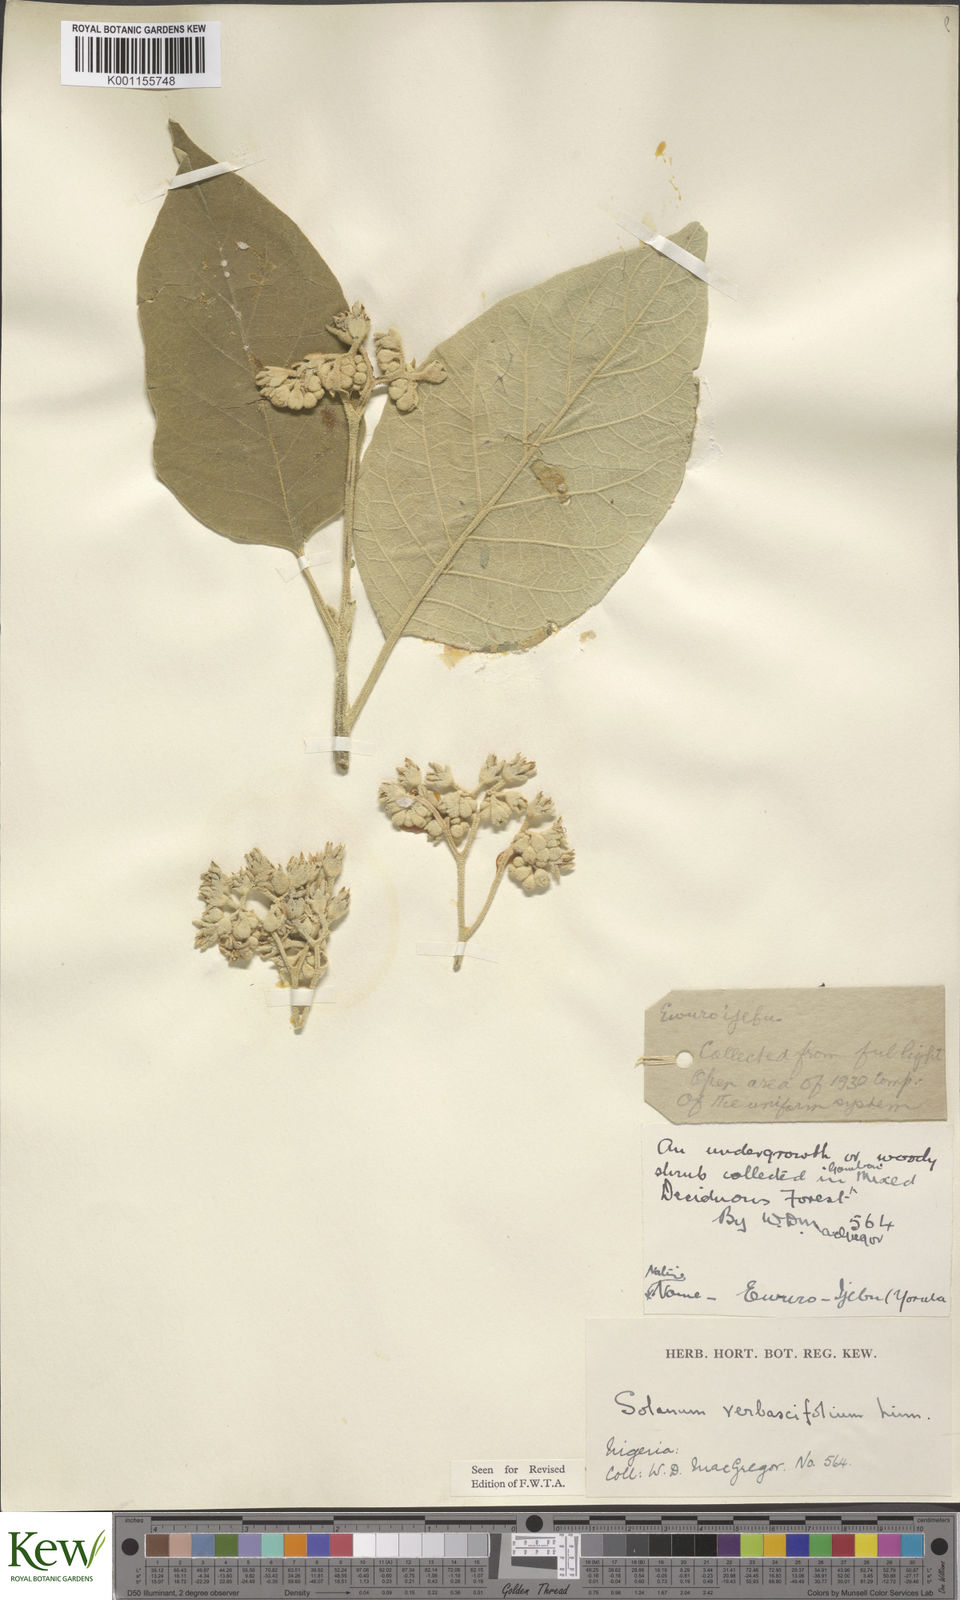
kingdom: Plantae
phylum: Tracheophyta
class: Magnoliopsida
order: Solanales
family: Solanaceae
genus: Solanum
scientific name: Solanum erianthum
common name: Tobacco-tree
